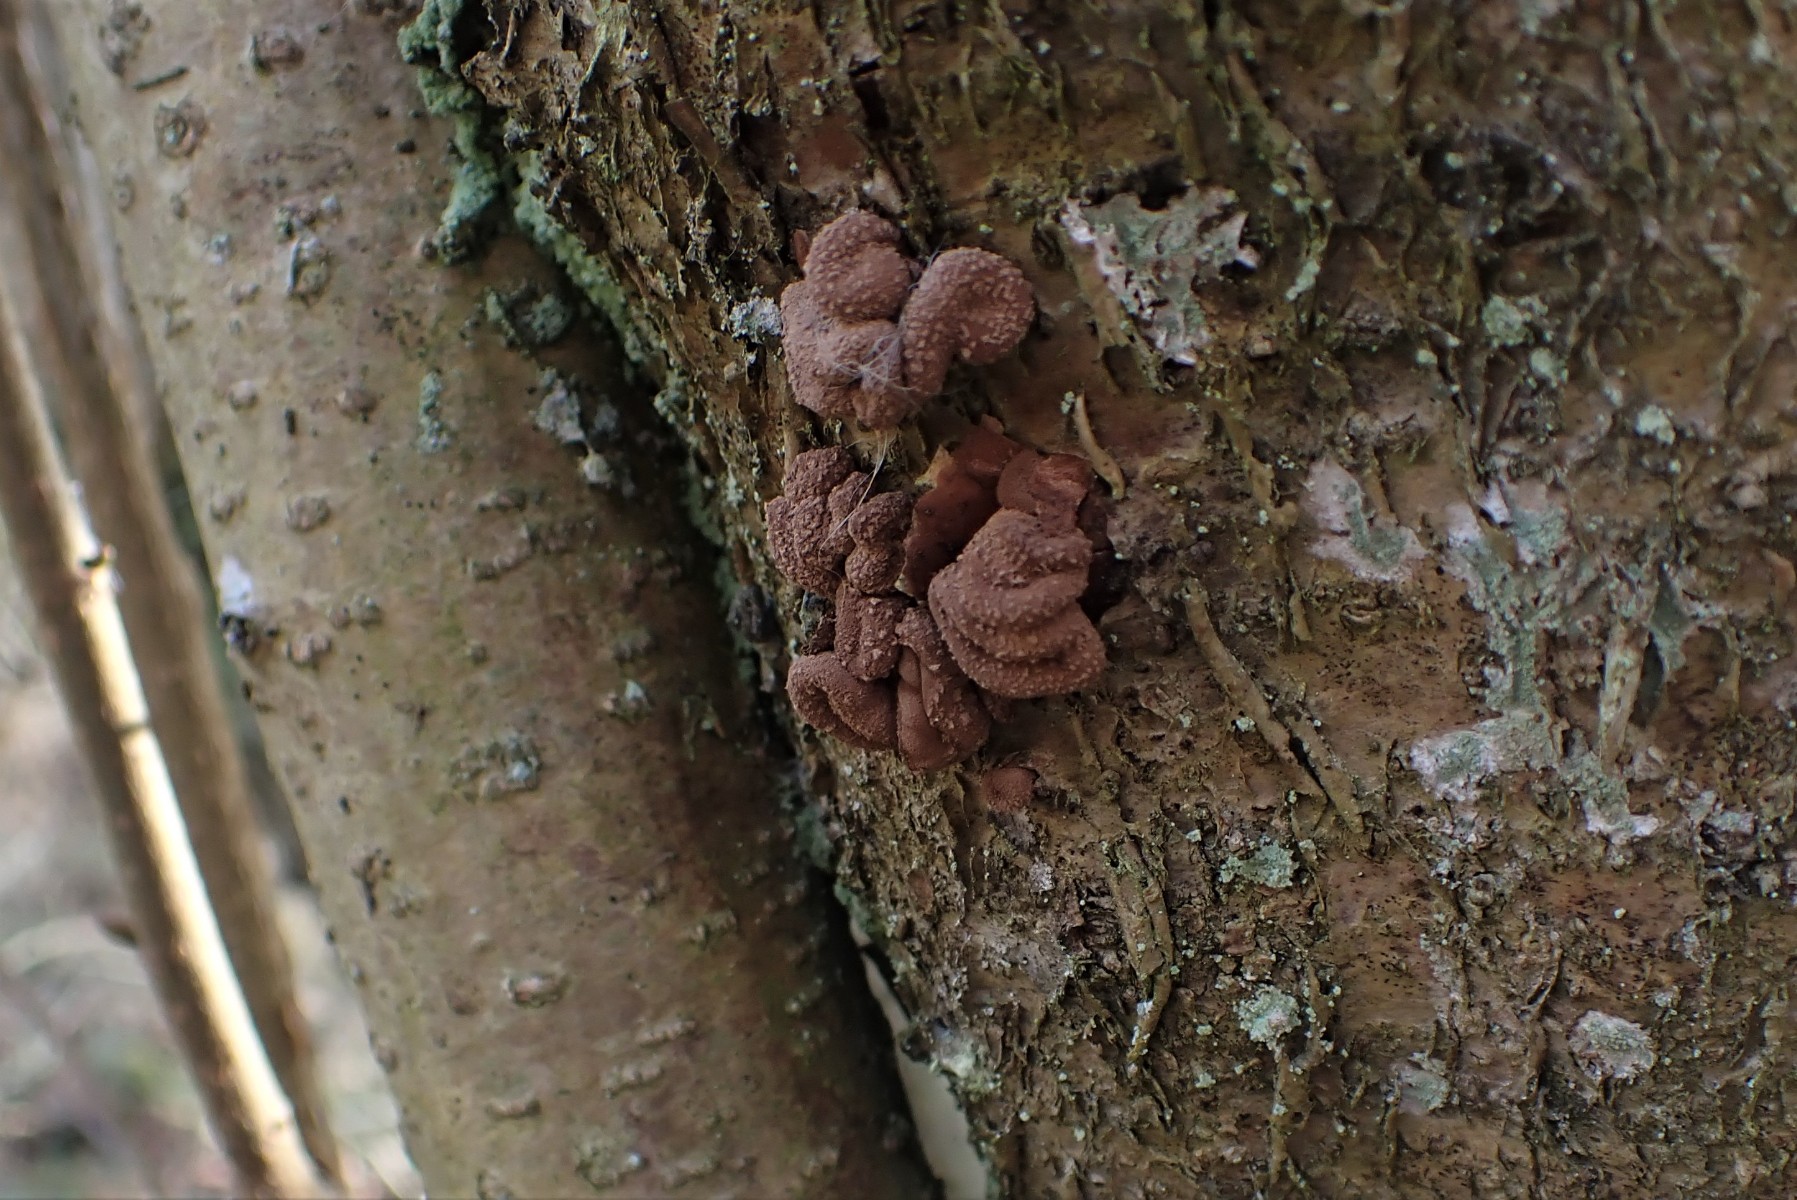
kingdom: Fungi
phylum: Ascomycota
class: Leotiomycetes
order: Helotiales
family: Cenangiaceae
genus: Encoelia
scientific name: Encoelia furfuracea
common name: hassel-læderskive
